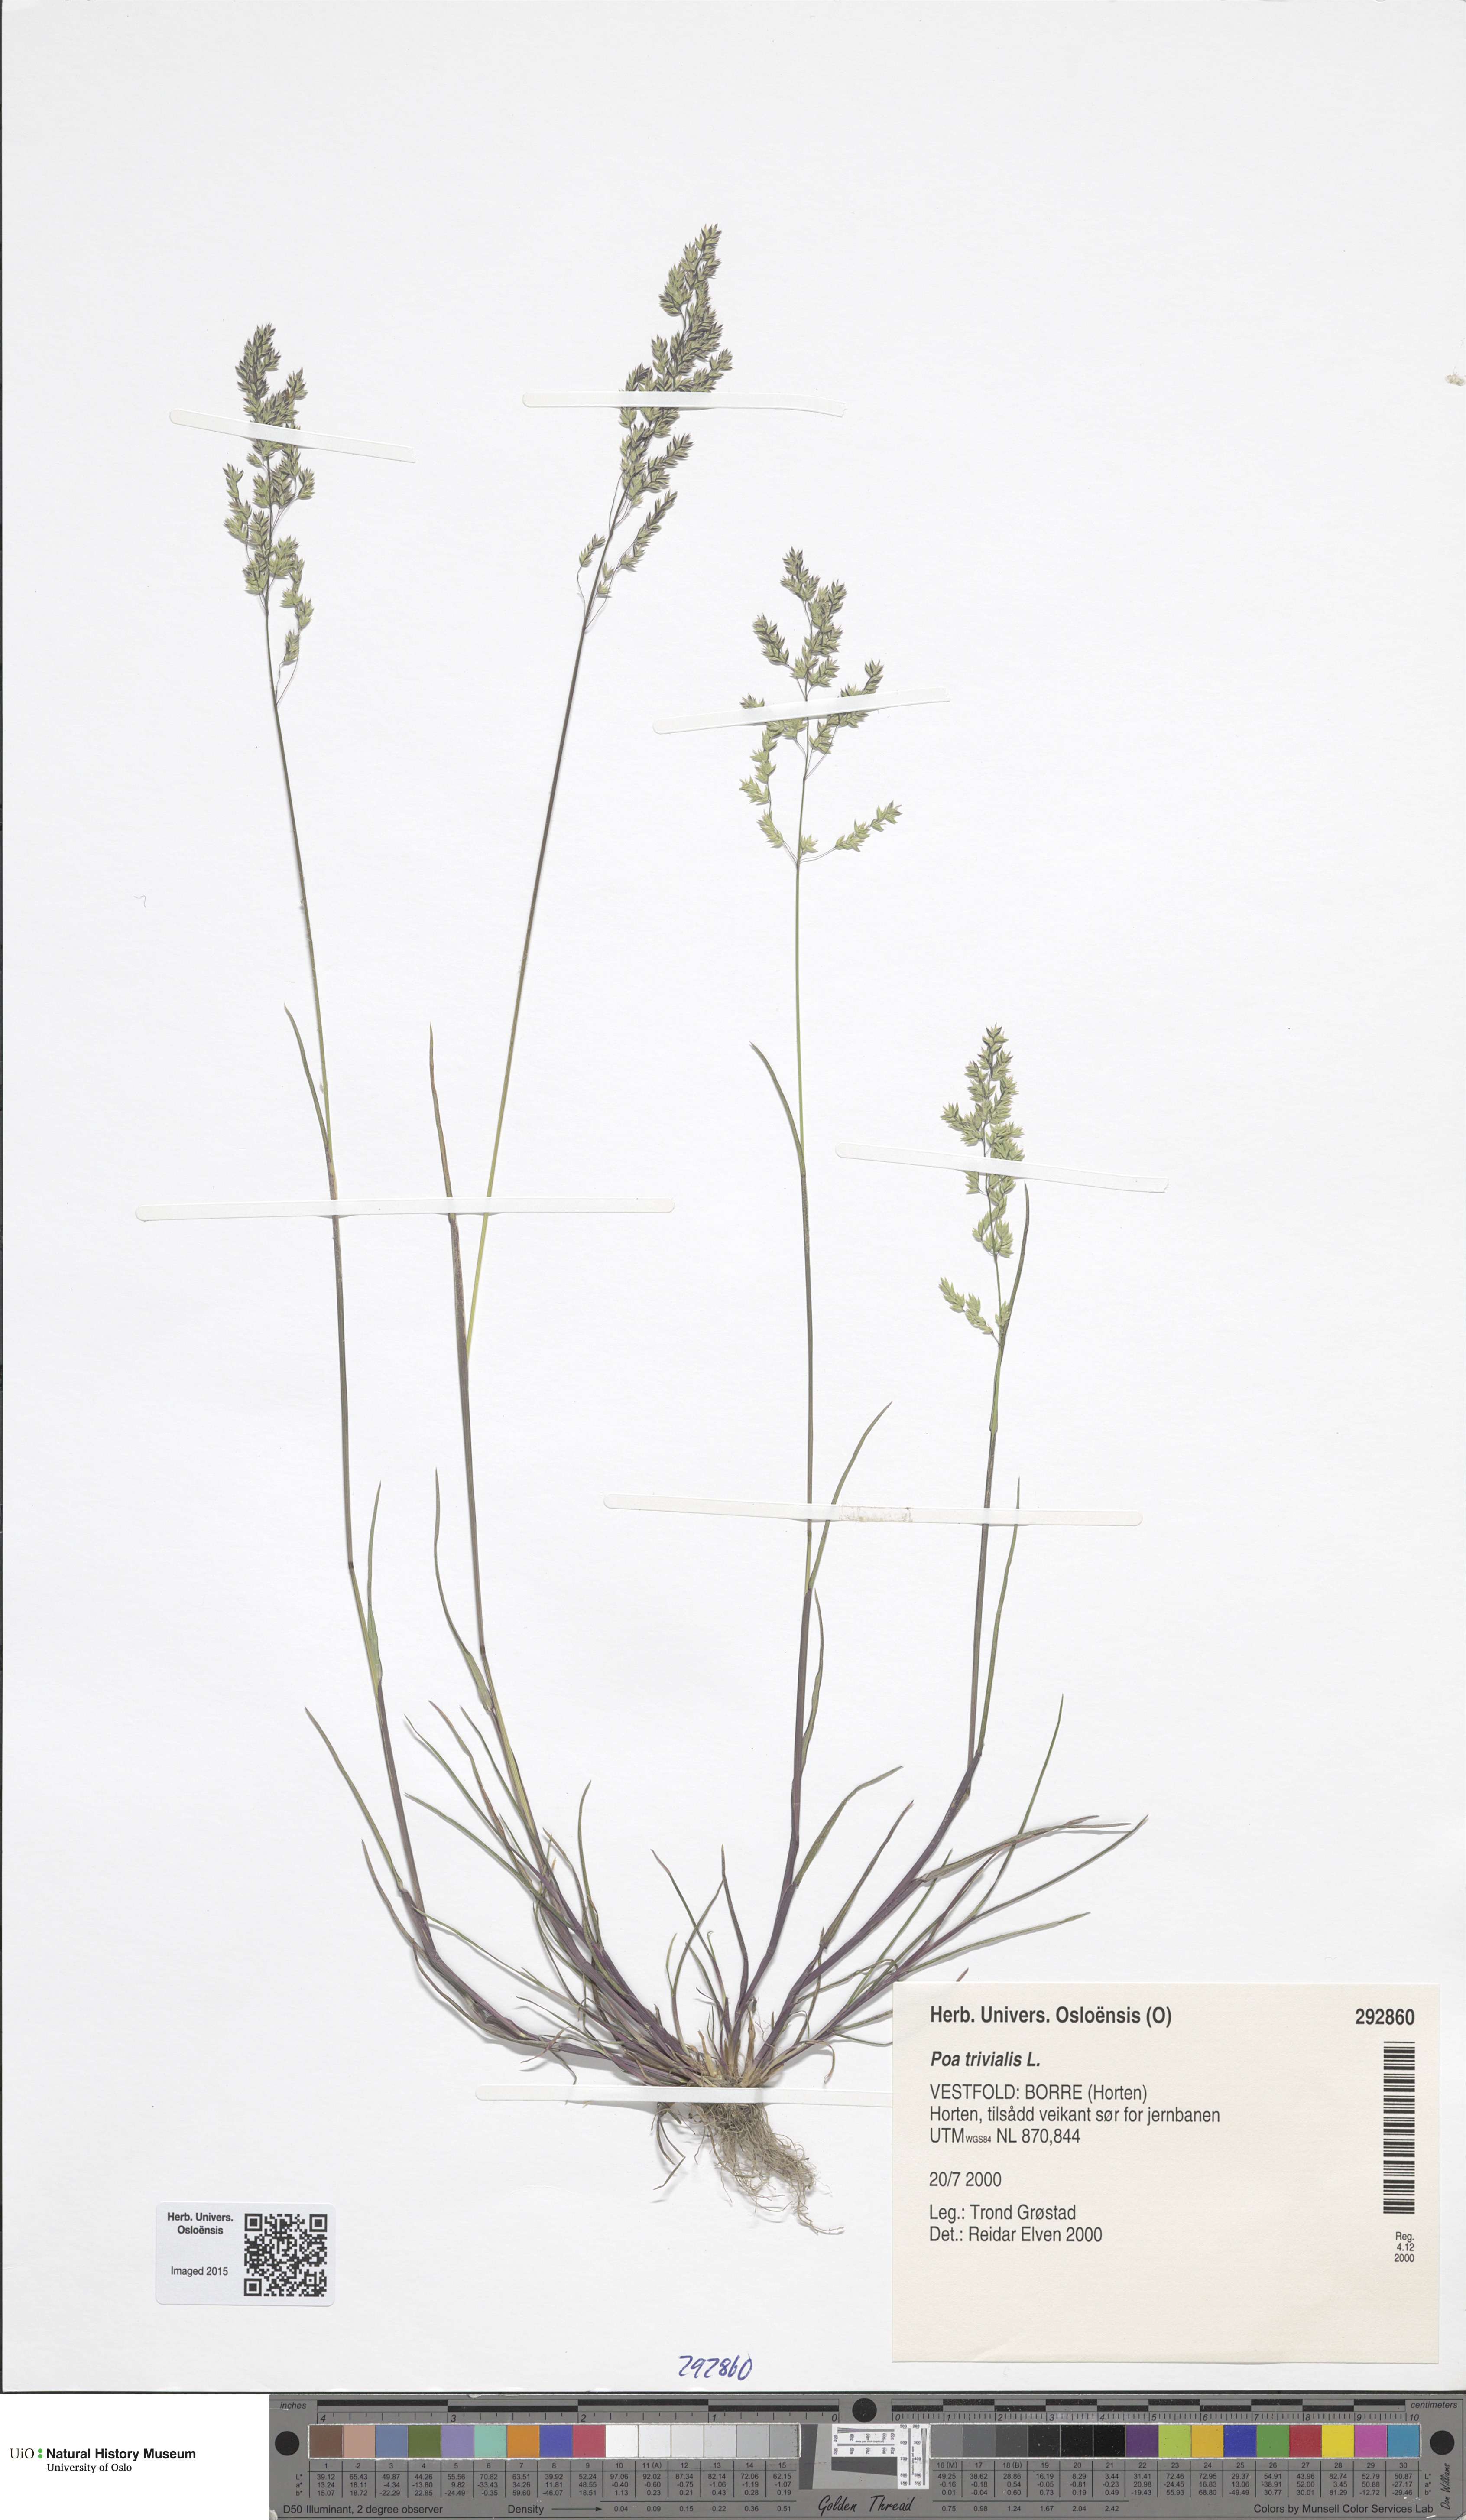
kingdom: Plantae
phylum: Tracheophyta
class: Liliopsida
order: Poales
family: Poaceae
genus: Poa
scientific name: Poa trivialis
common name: Rough bluegrass
